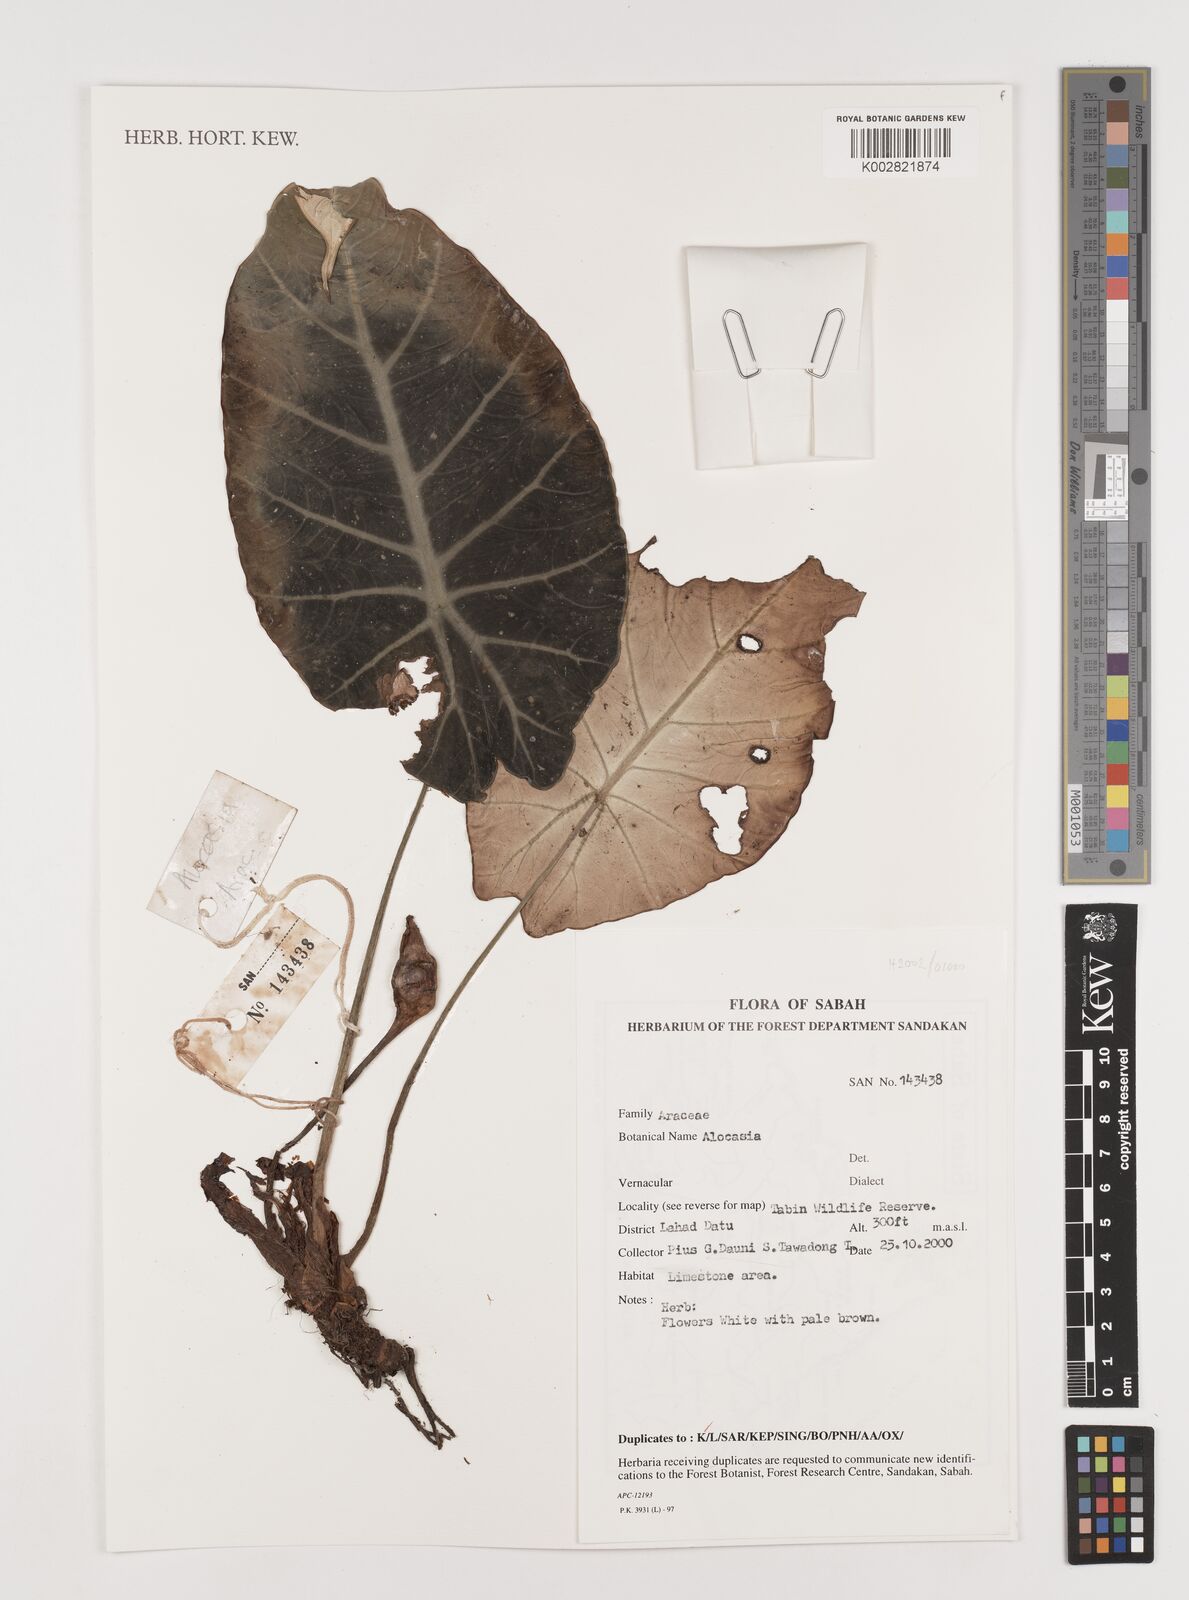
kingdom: Plantae
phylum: Tracheophyta
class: Liliopsida
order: Alismatales
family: Araceae
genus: Alocasia
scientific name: Alocasia
